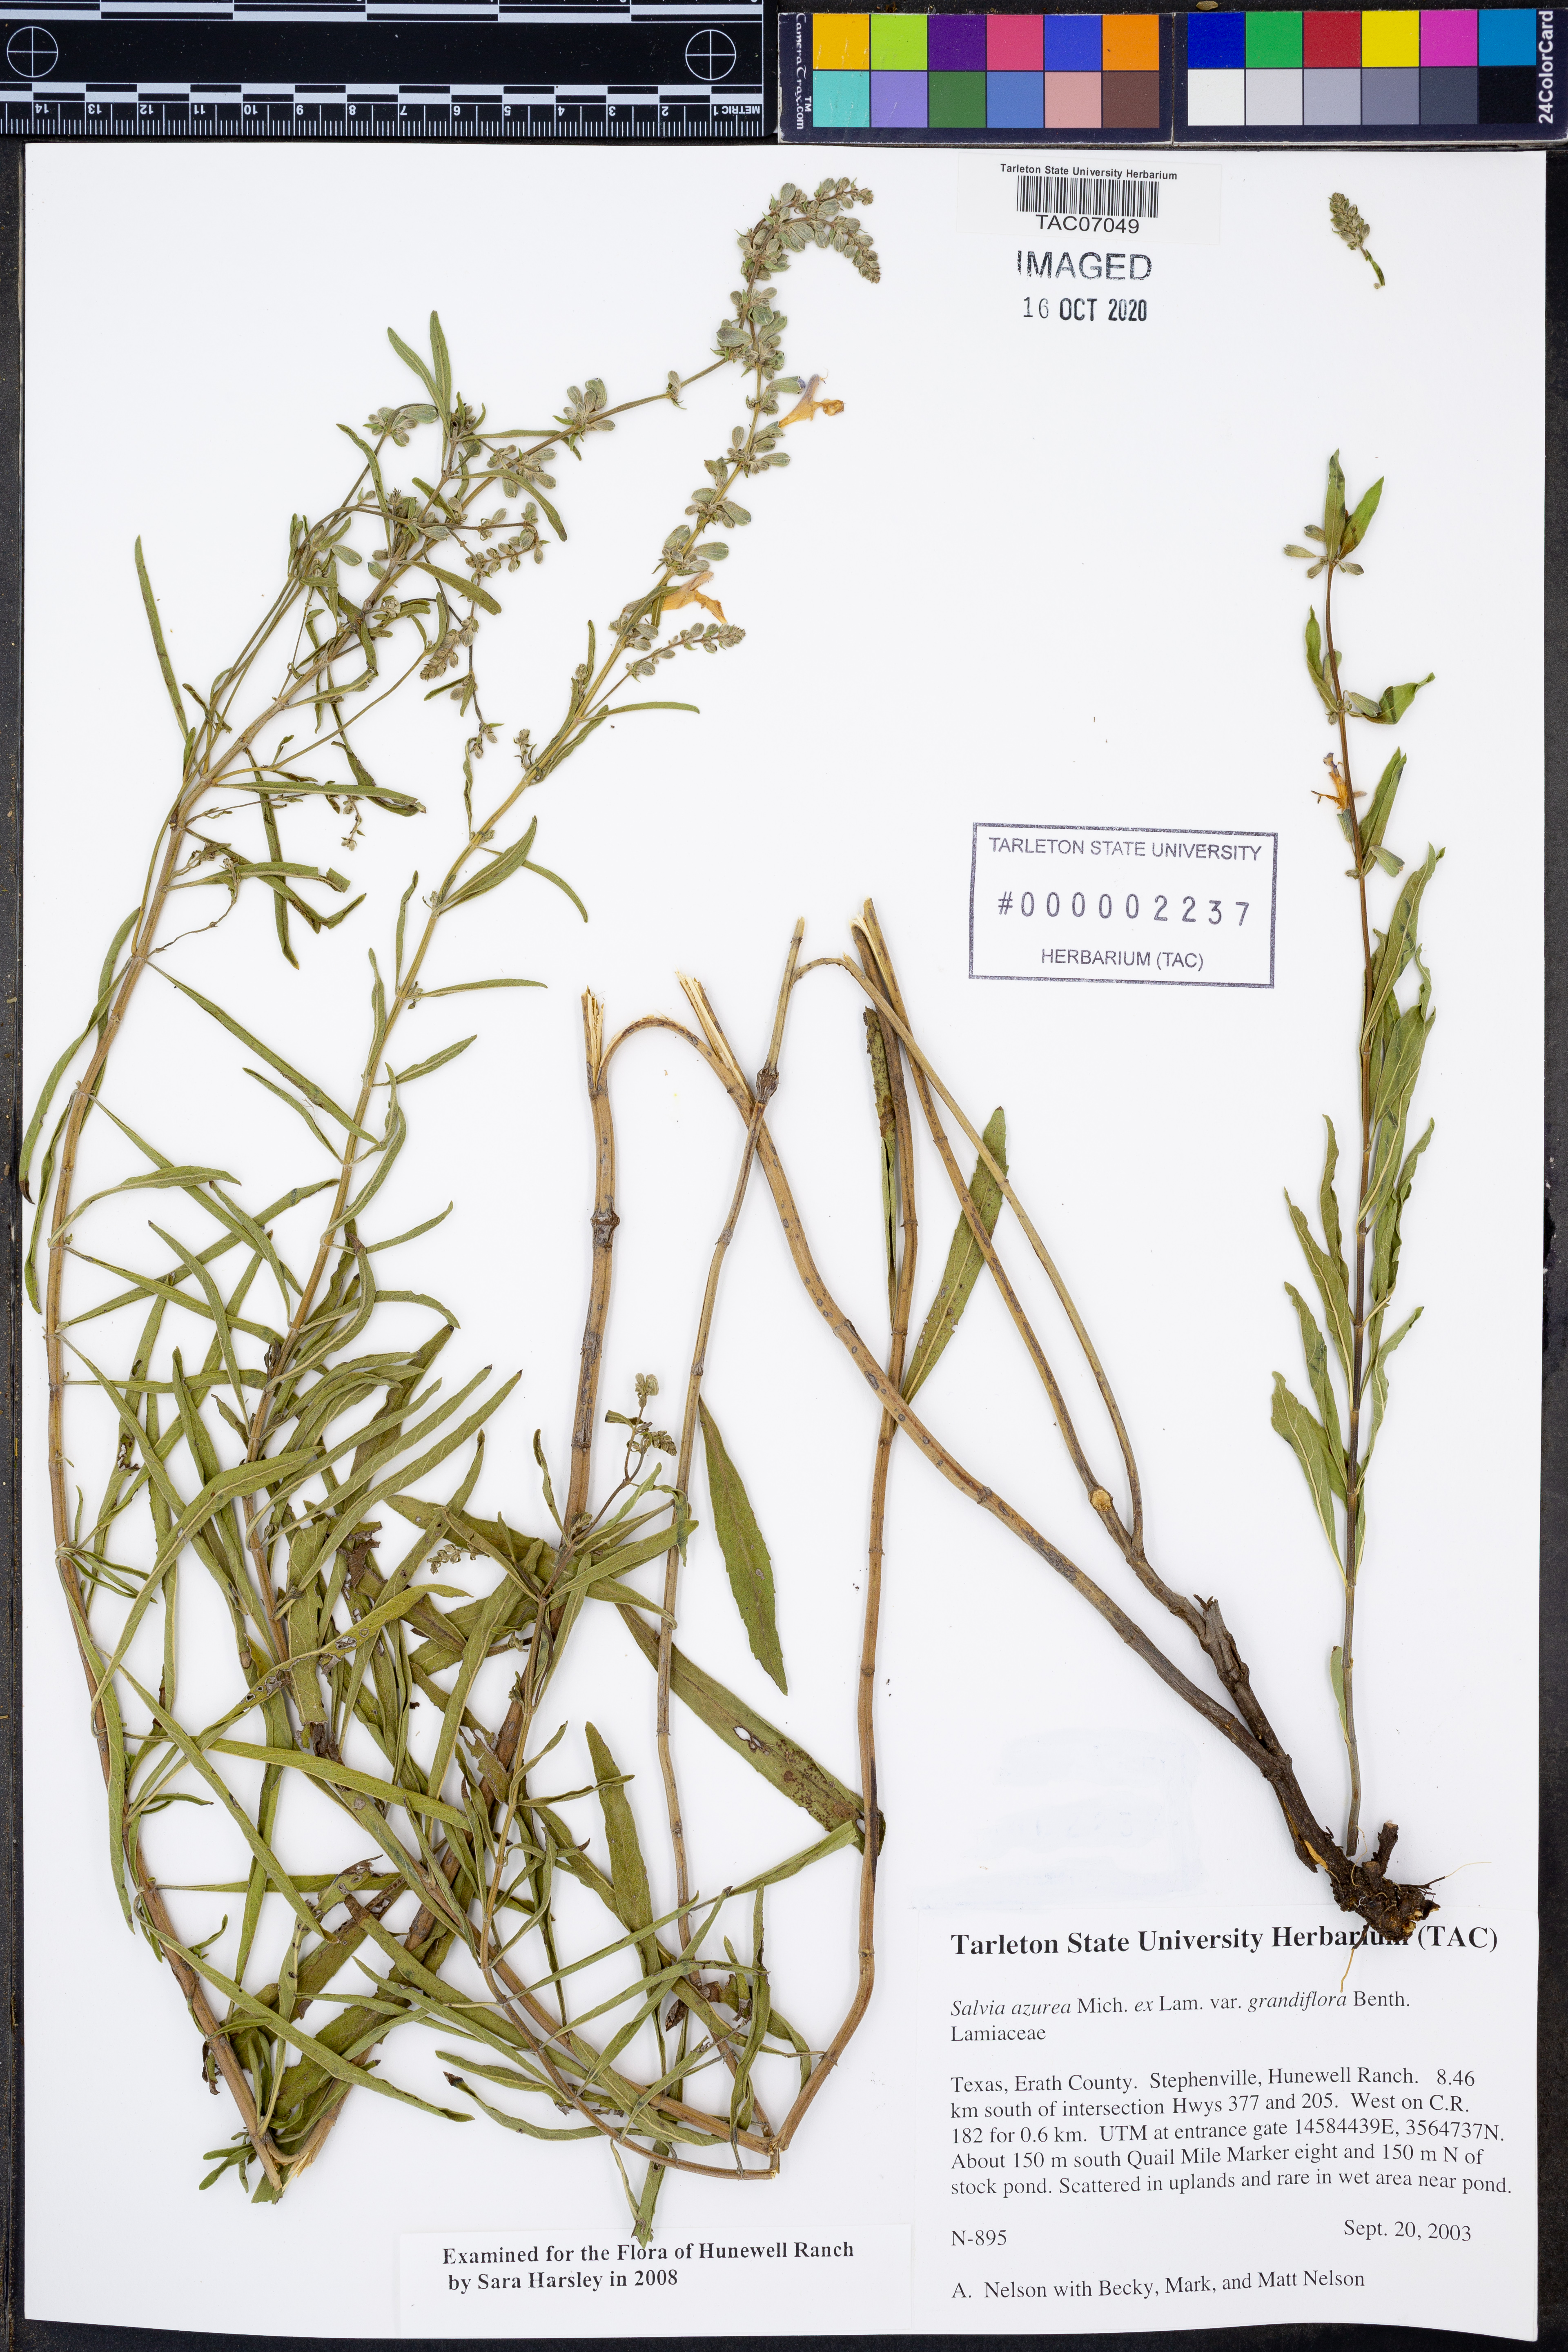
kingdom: Plantae
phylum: Tracheophyta
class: Magnoliopsida
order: Lamiales
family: Lamiaceae
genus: Salvia
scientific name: Salvia azurea
